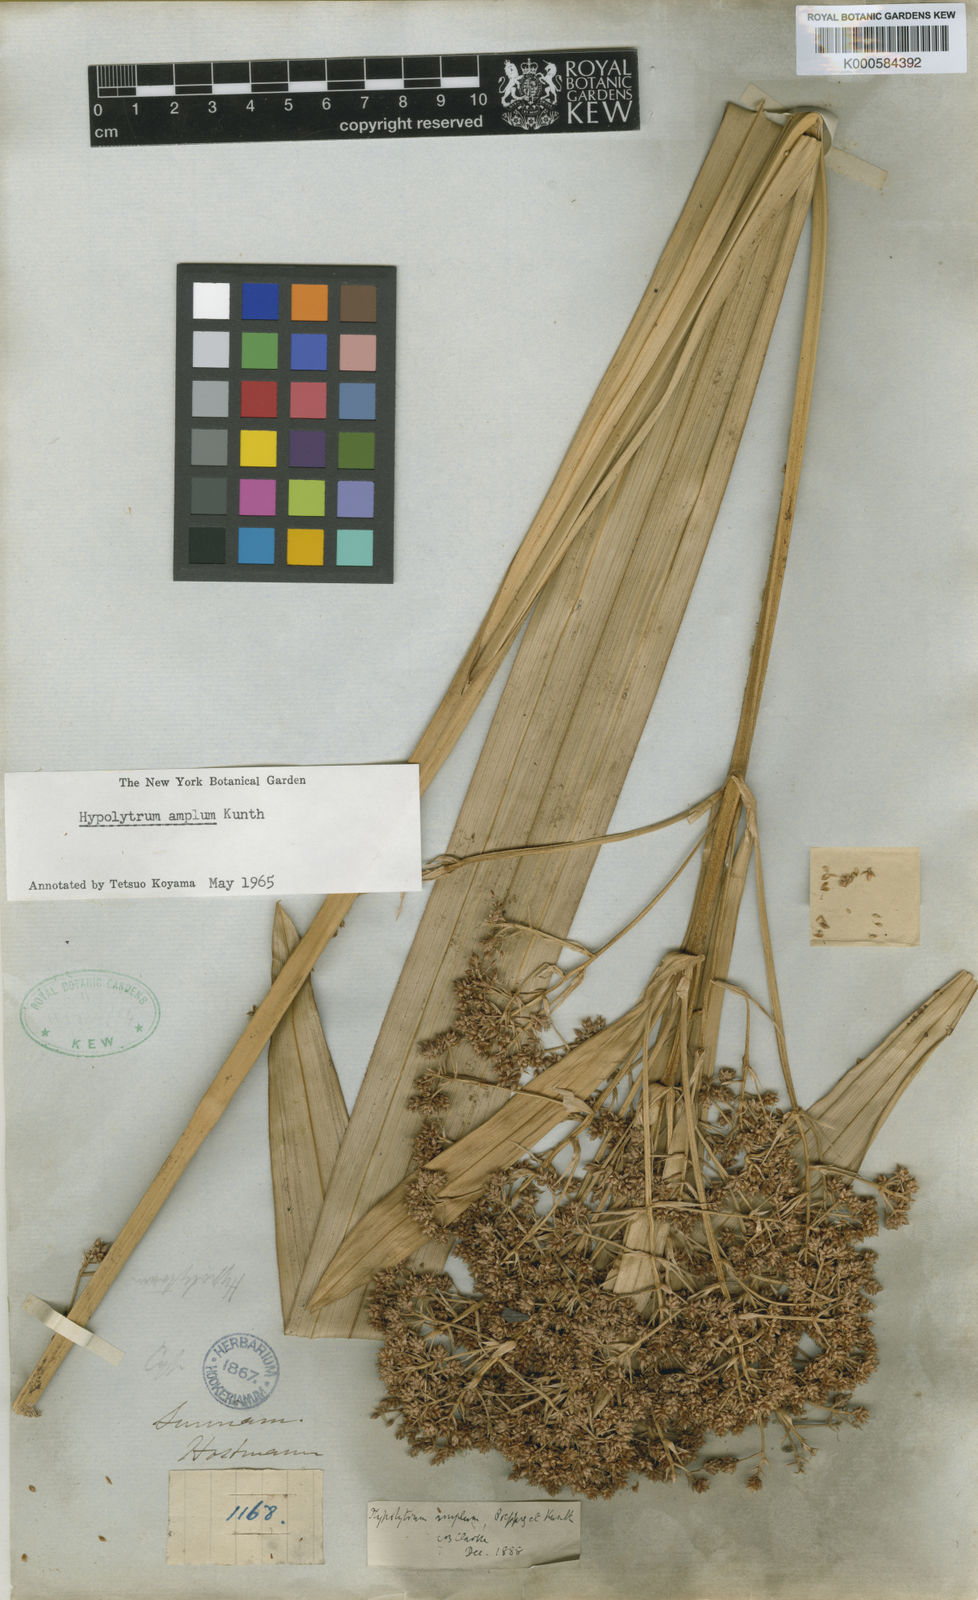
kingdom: Plantae
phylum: Tracheophyta
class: Liliopsida
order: Poales
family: Cyperaceae
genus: Hypolytrum
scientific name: Hypolytrum amplum
